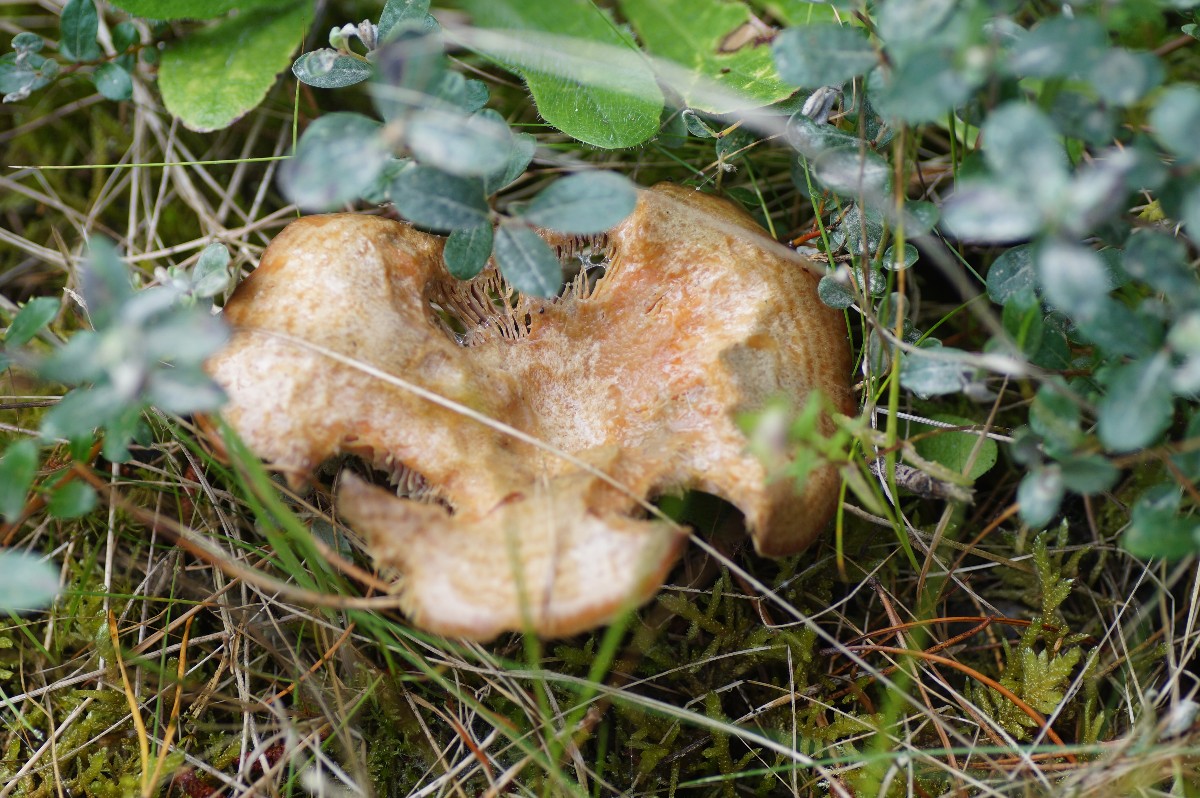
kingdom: Fungi
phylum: Basidiomycota
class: Agaricomycetes
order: Russulales
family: Russulaceae
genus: Lactarius
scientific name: Lactarius quieticolor
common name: tvefarvet mælkehat
